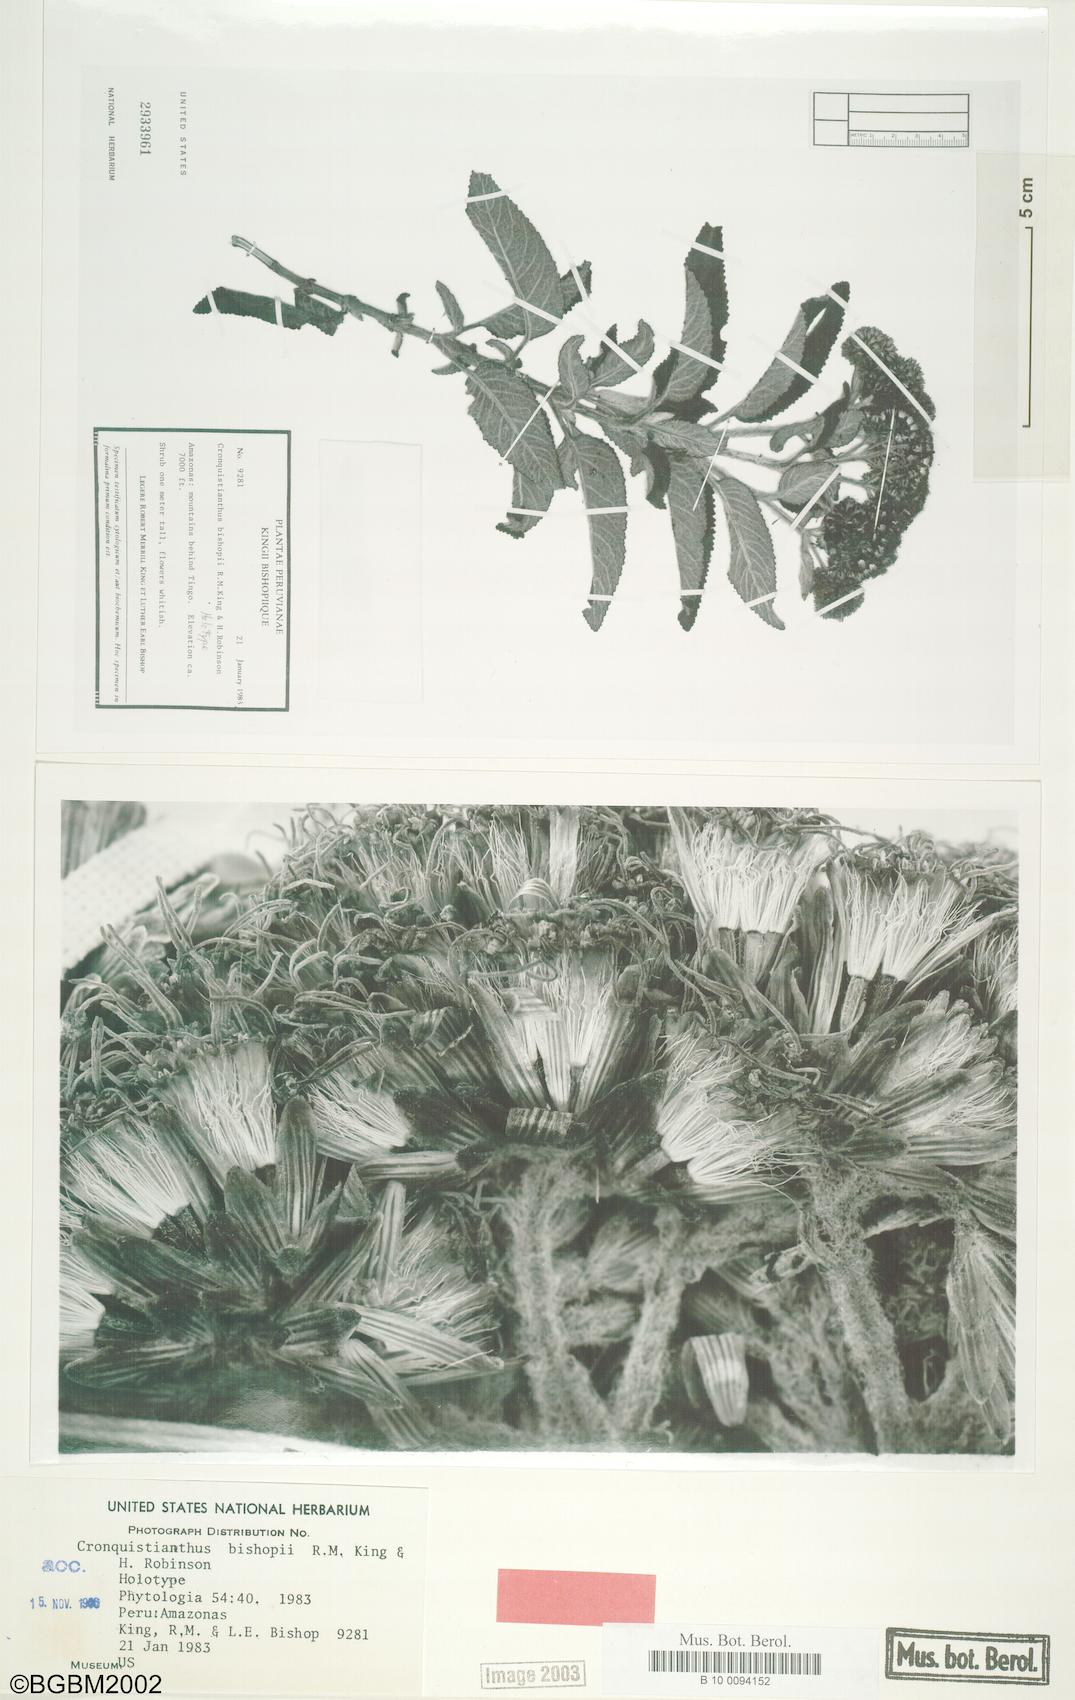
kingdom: Plantae
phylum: Tracheophyta
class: Magnoliopsida
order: Asterales
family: Asteraceae
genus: Cronquistianthus
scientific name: Cronquistianthus bishopii
